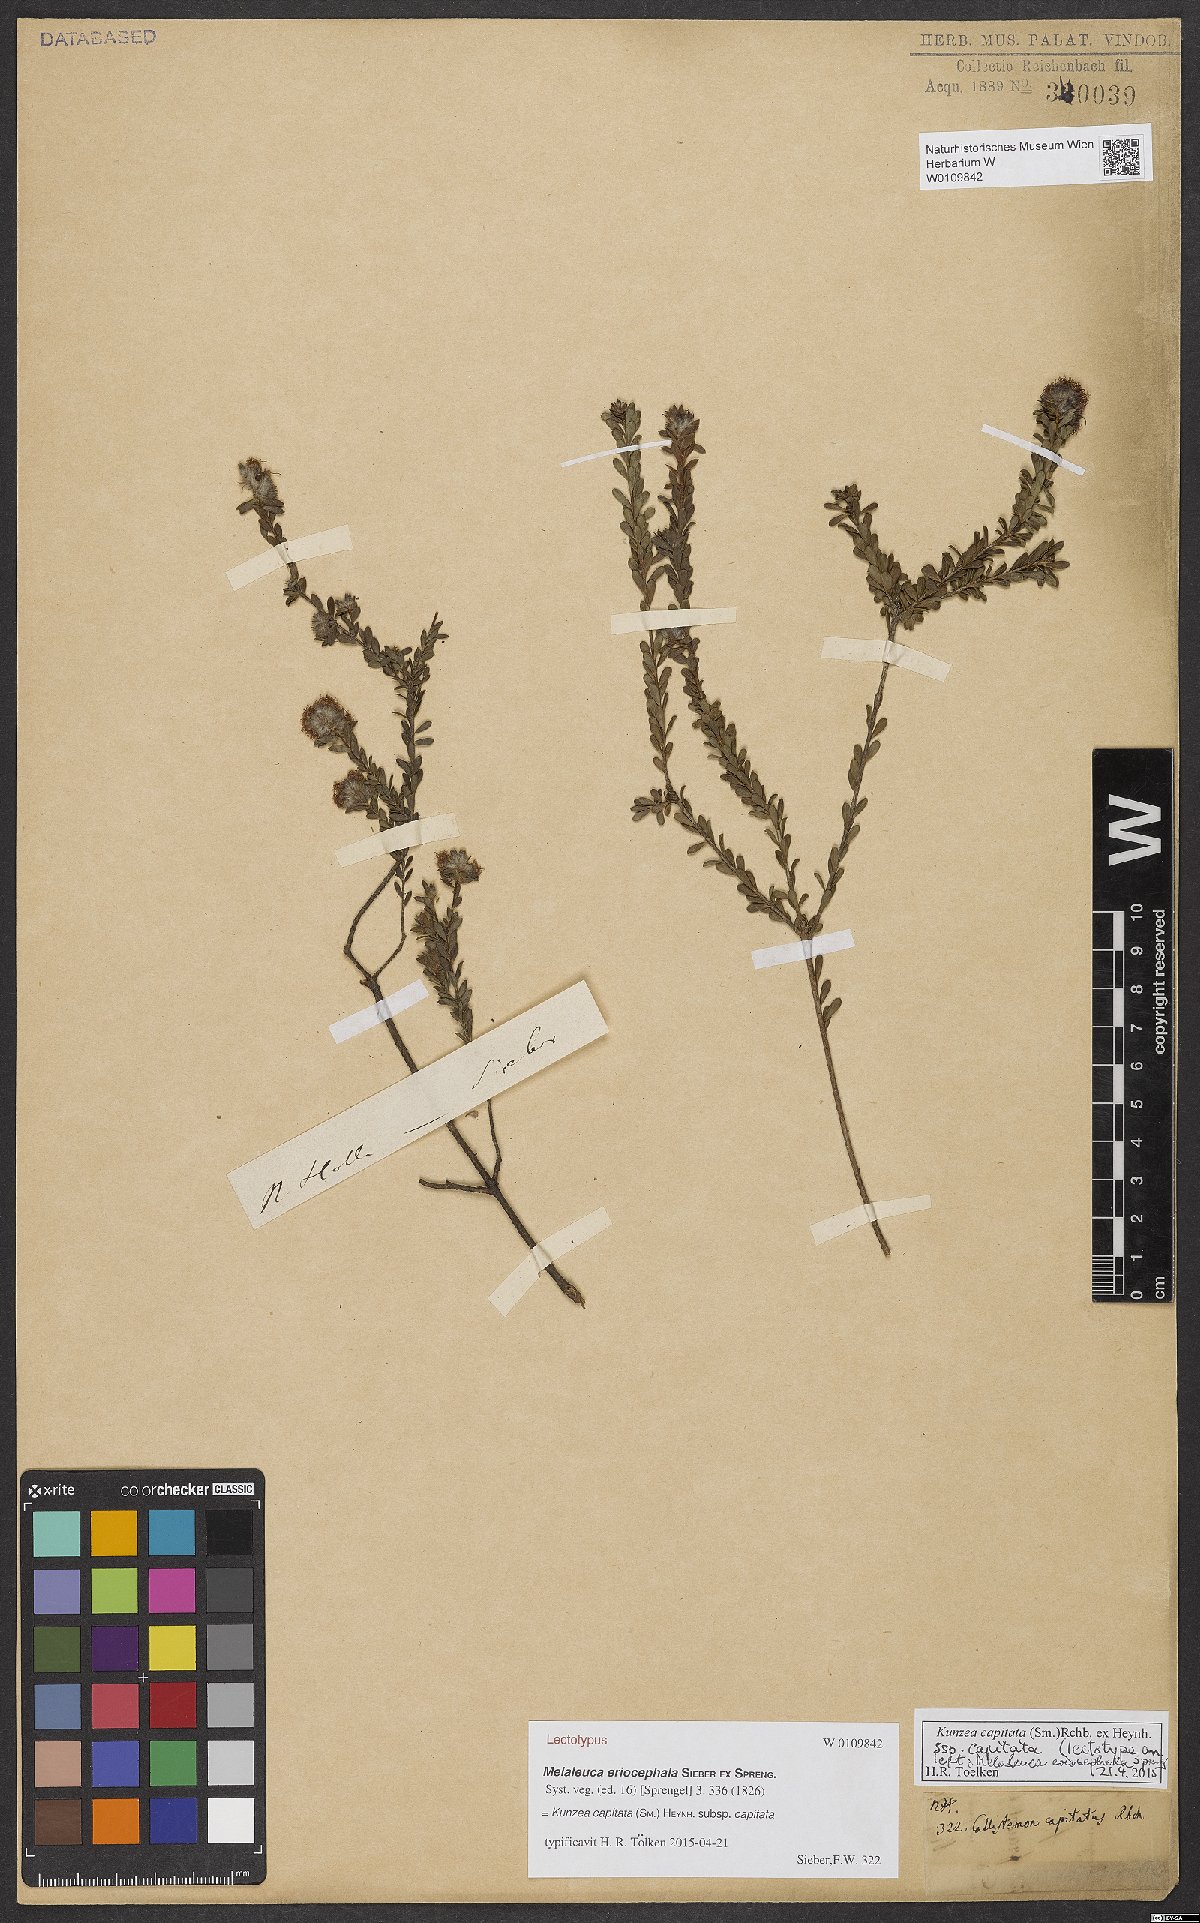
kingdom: Plantae
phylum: Tracheophyta
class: Magnoliopsida
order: Myrtales
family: Myrtaceae
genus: Kunzea
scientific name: Kunzea capitata
